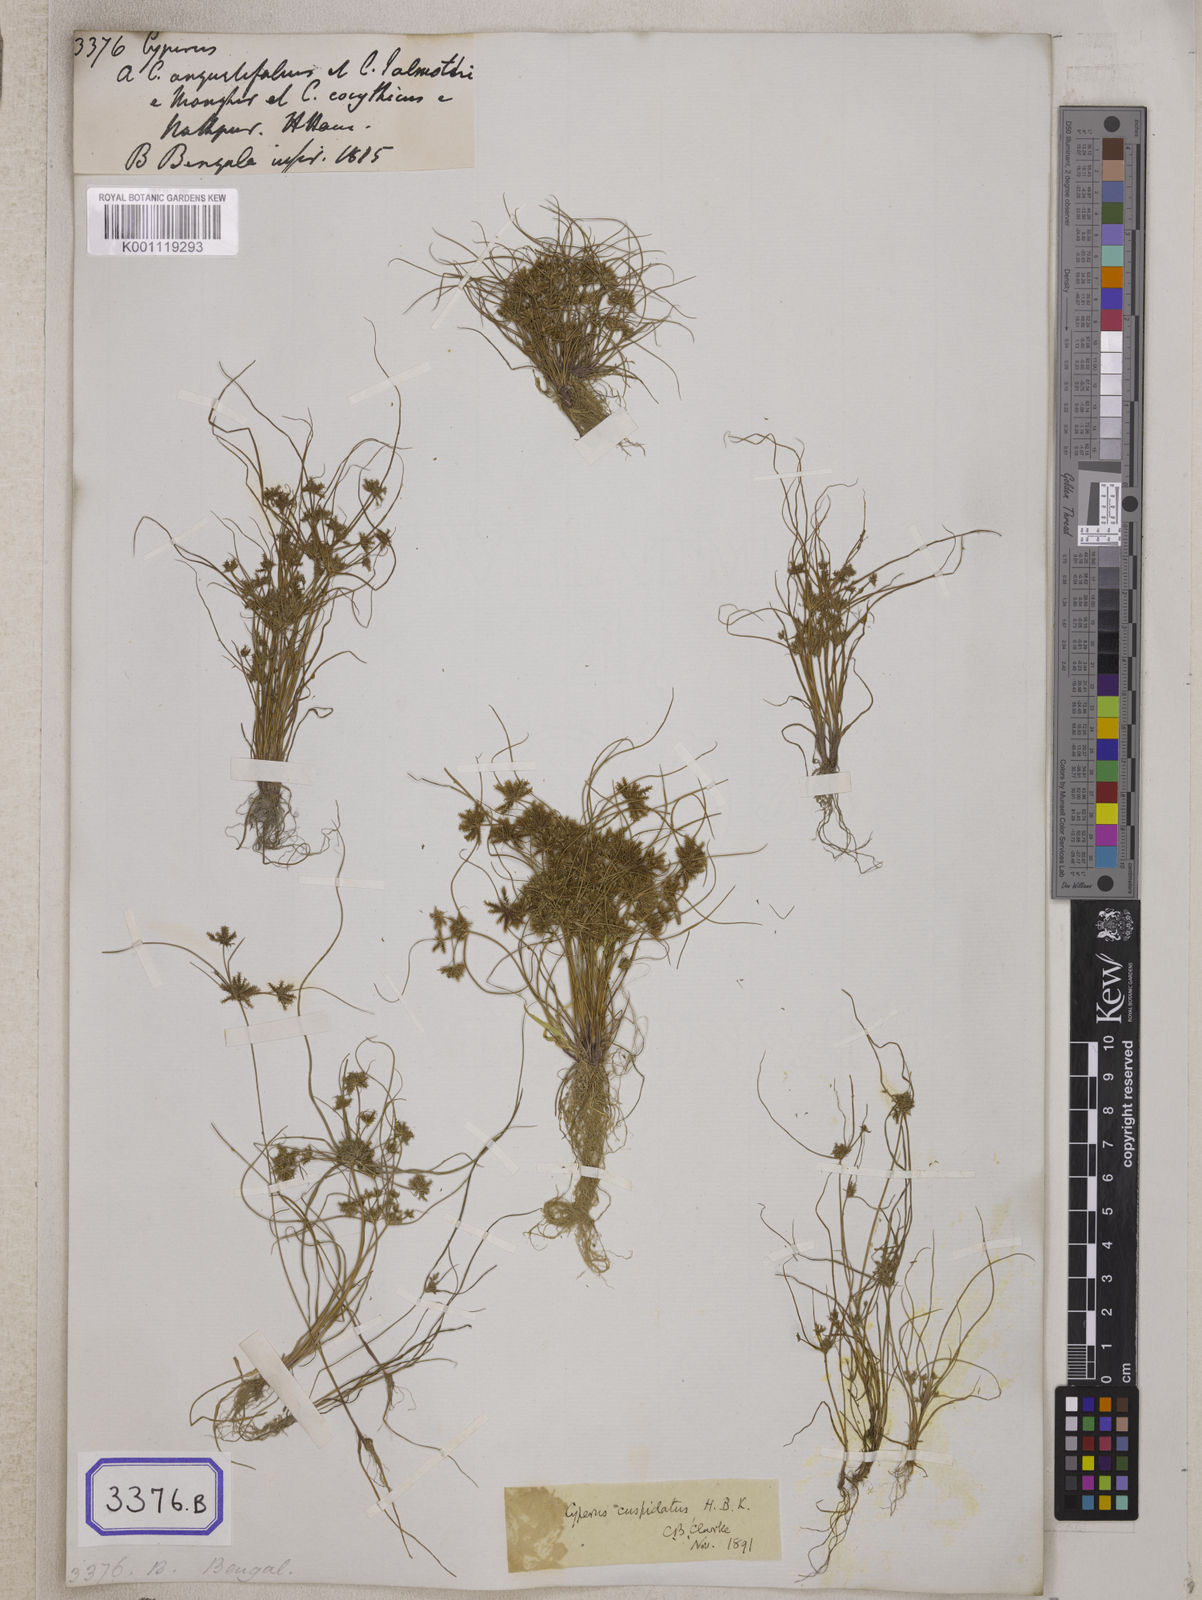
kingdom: Plantae
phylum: Tracheophyta
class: Liliopsida
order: Poales
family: Cyperaceae
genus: Cyperus
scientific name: Cyperus
